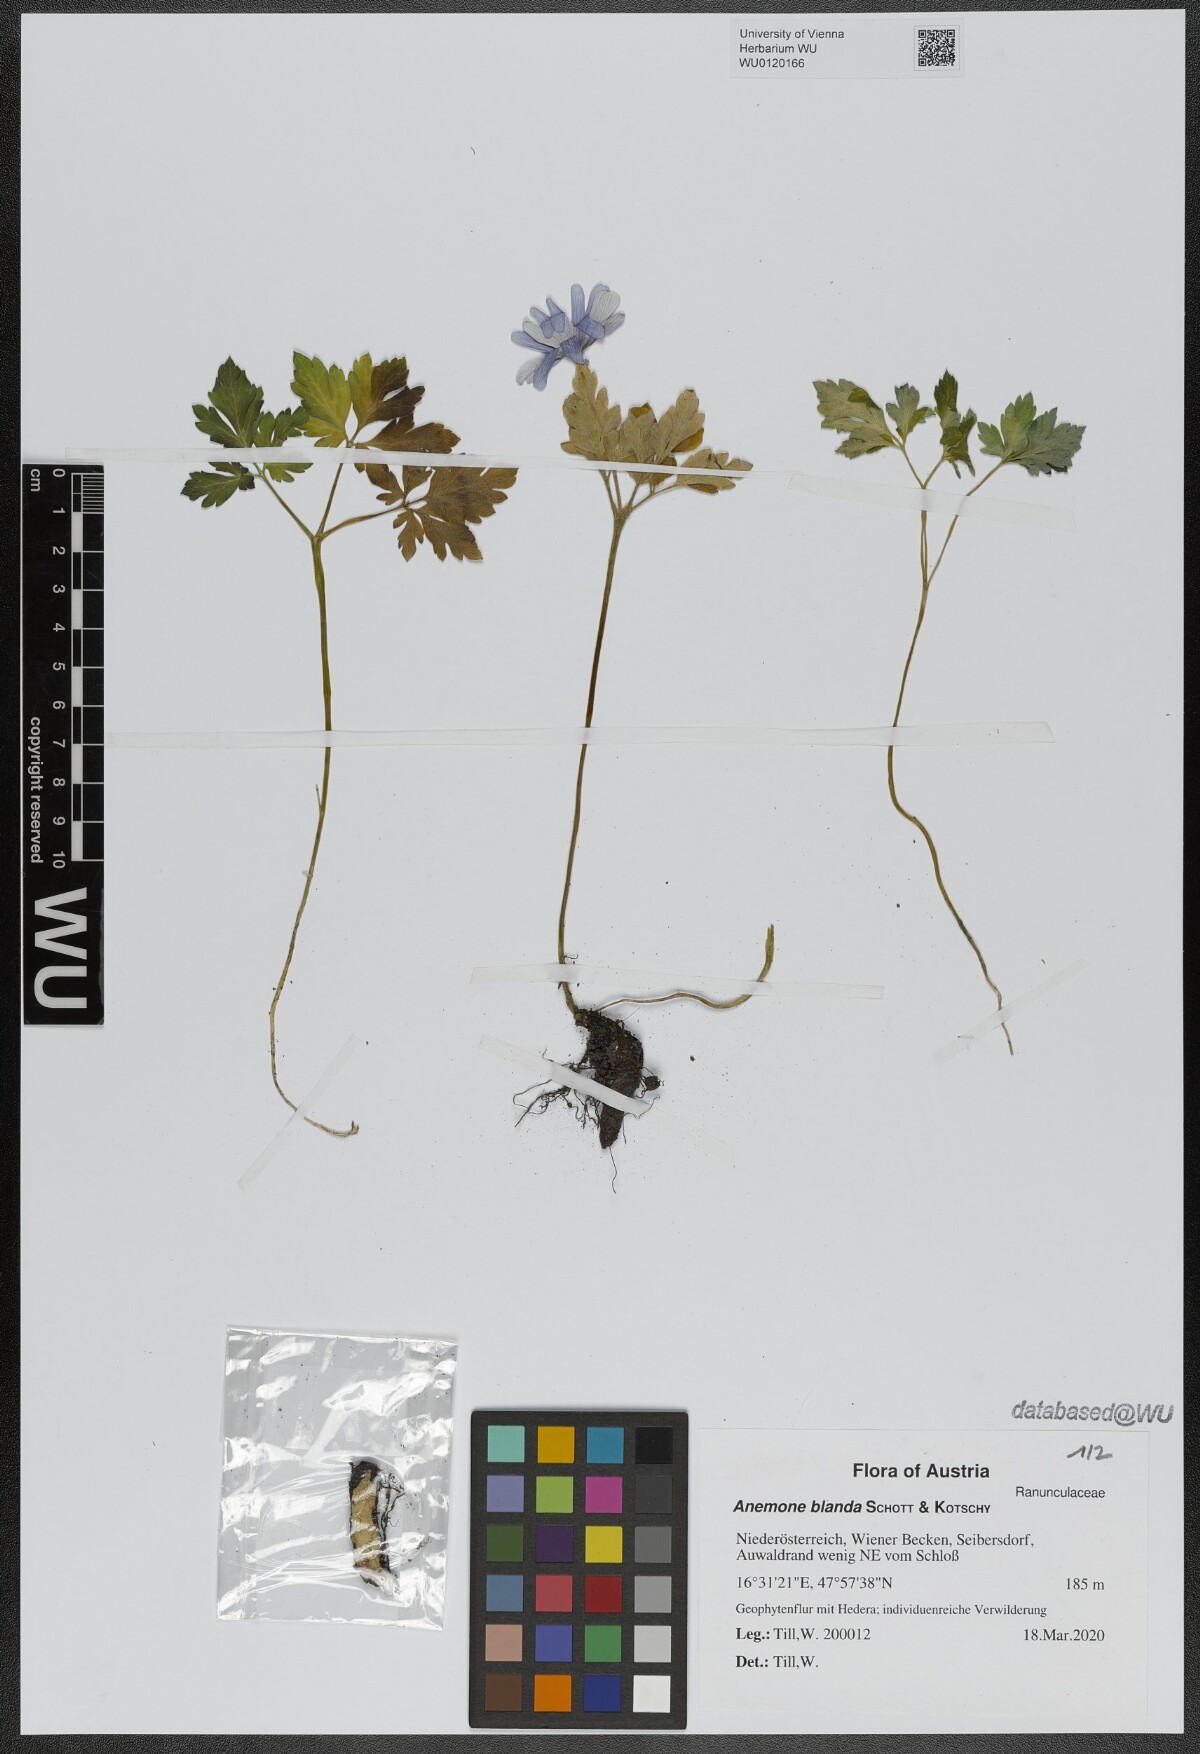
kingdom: Plantae
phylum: Tracheophyta
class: Magnoliopsida
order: Ranunculales
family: Ranunculaceae
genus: Anemone
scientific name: Anemone blanda
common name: Balkan anemone
